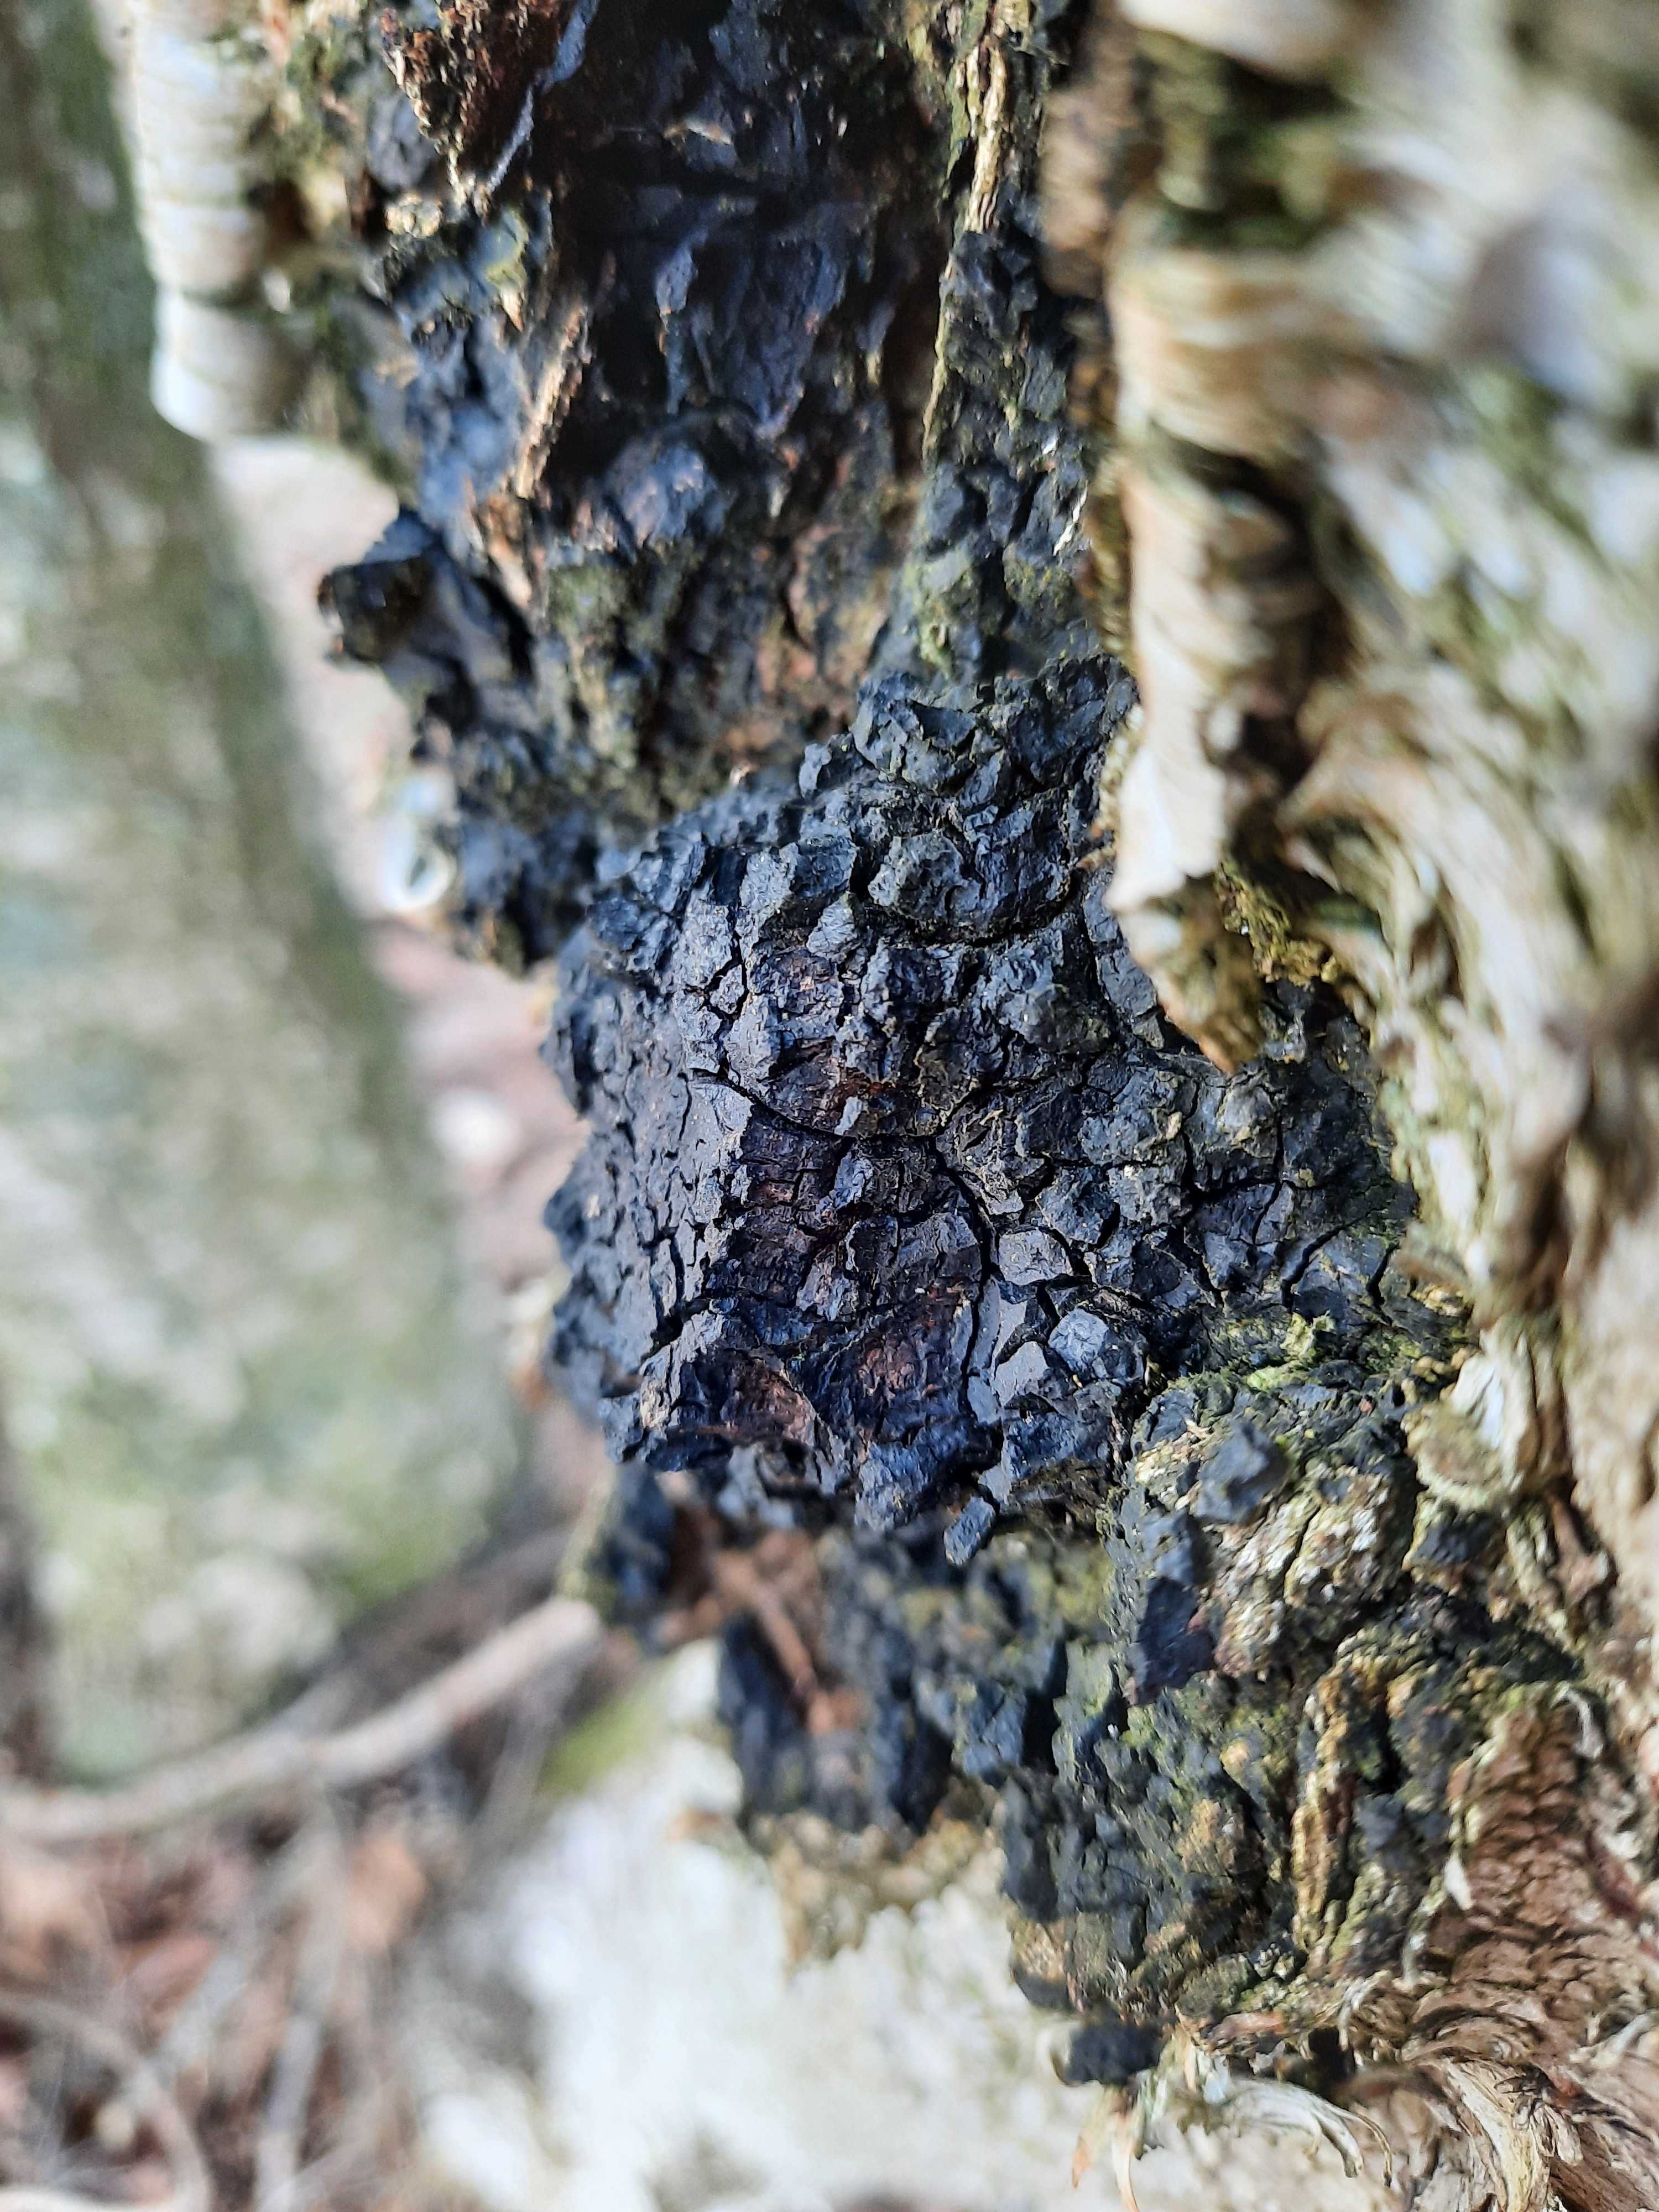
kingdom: Fungi
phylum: Basidiomycota
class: Agaricomycetes
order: Hymenochaetales
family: Hymenochaetaceae
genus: Inonotus
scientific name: Inonotus obliquus
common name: birke-spejlporesvamp
